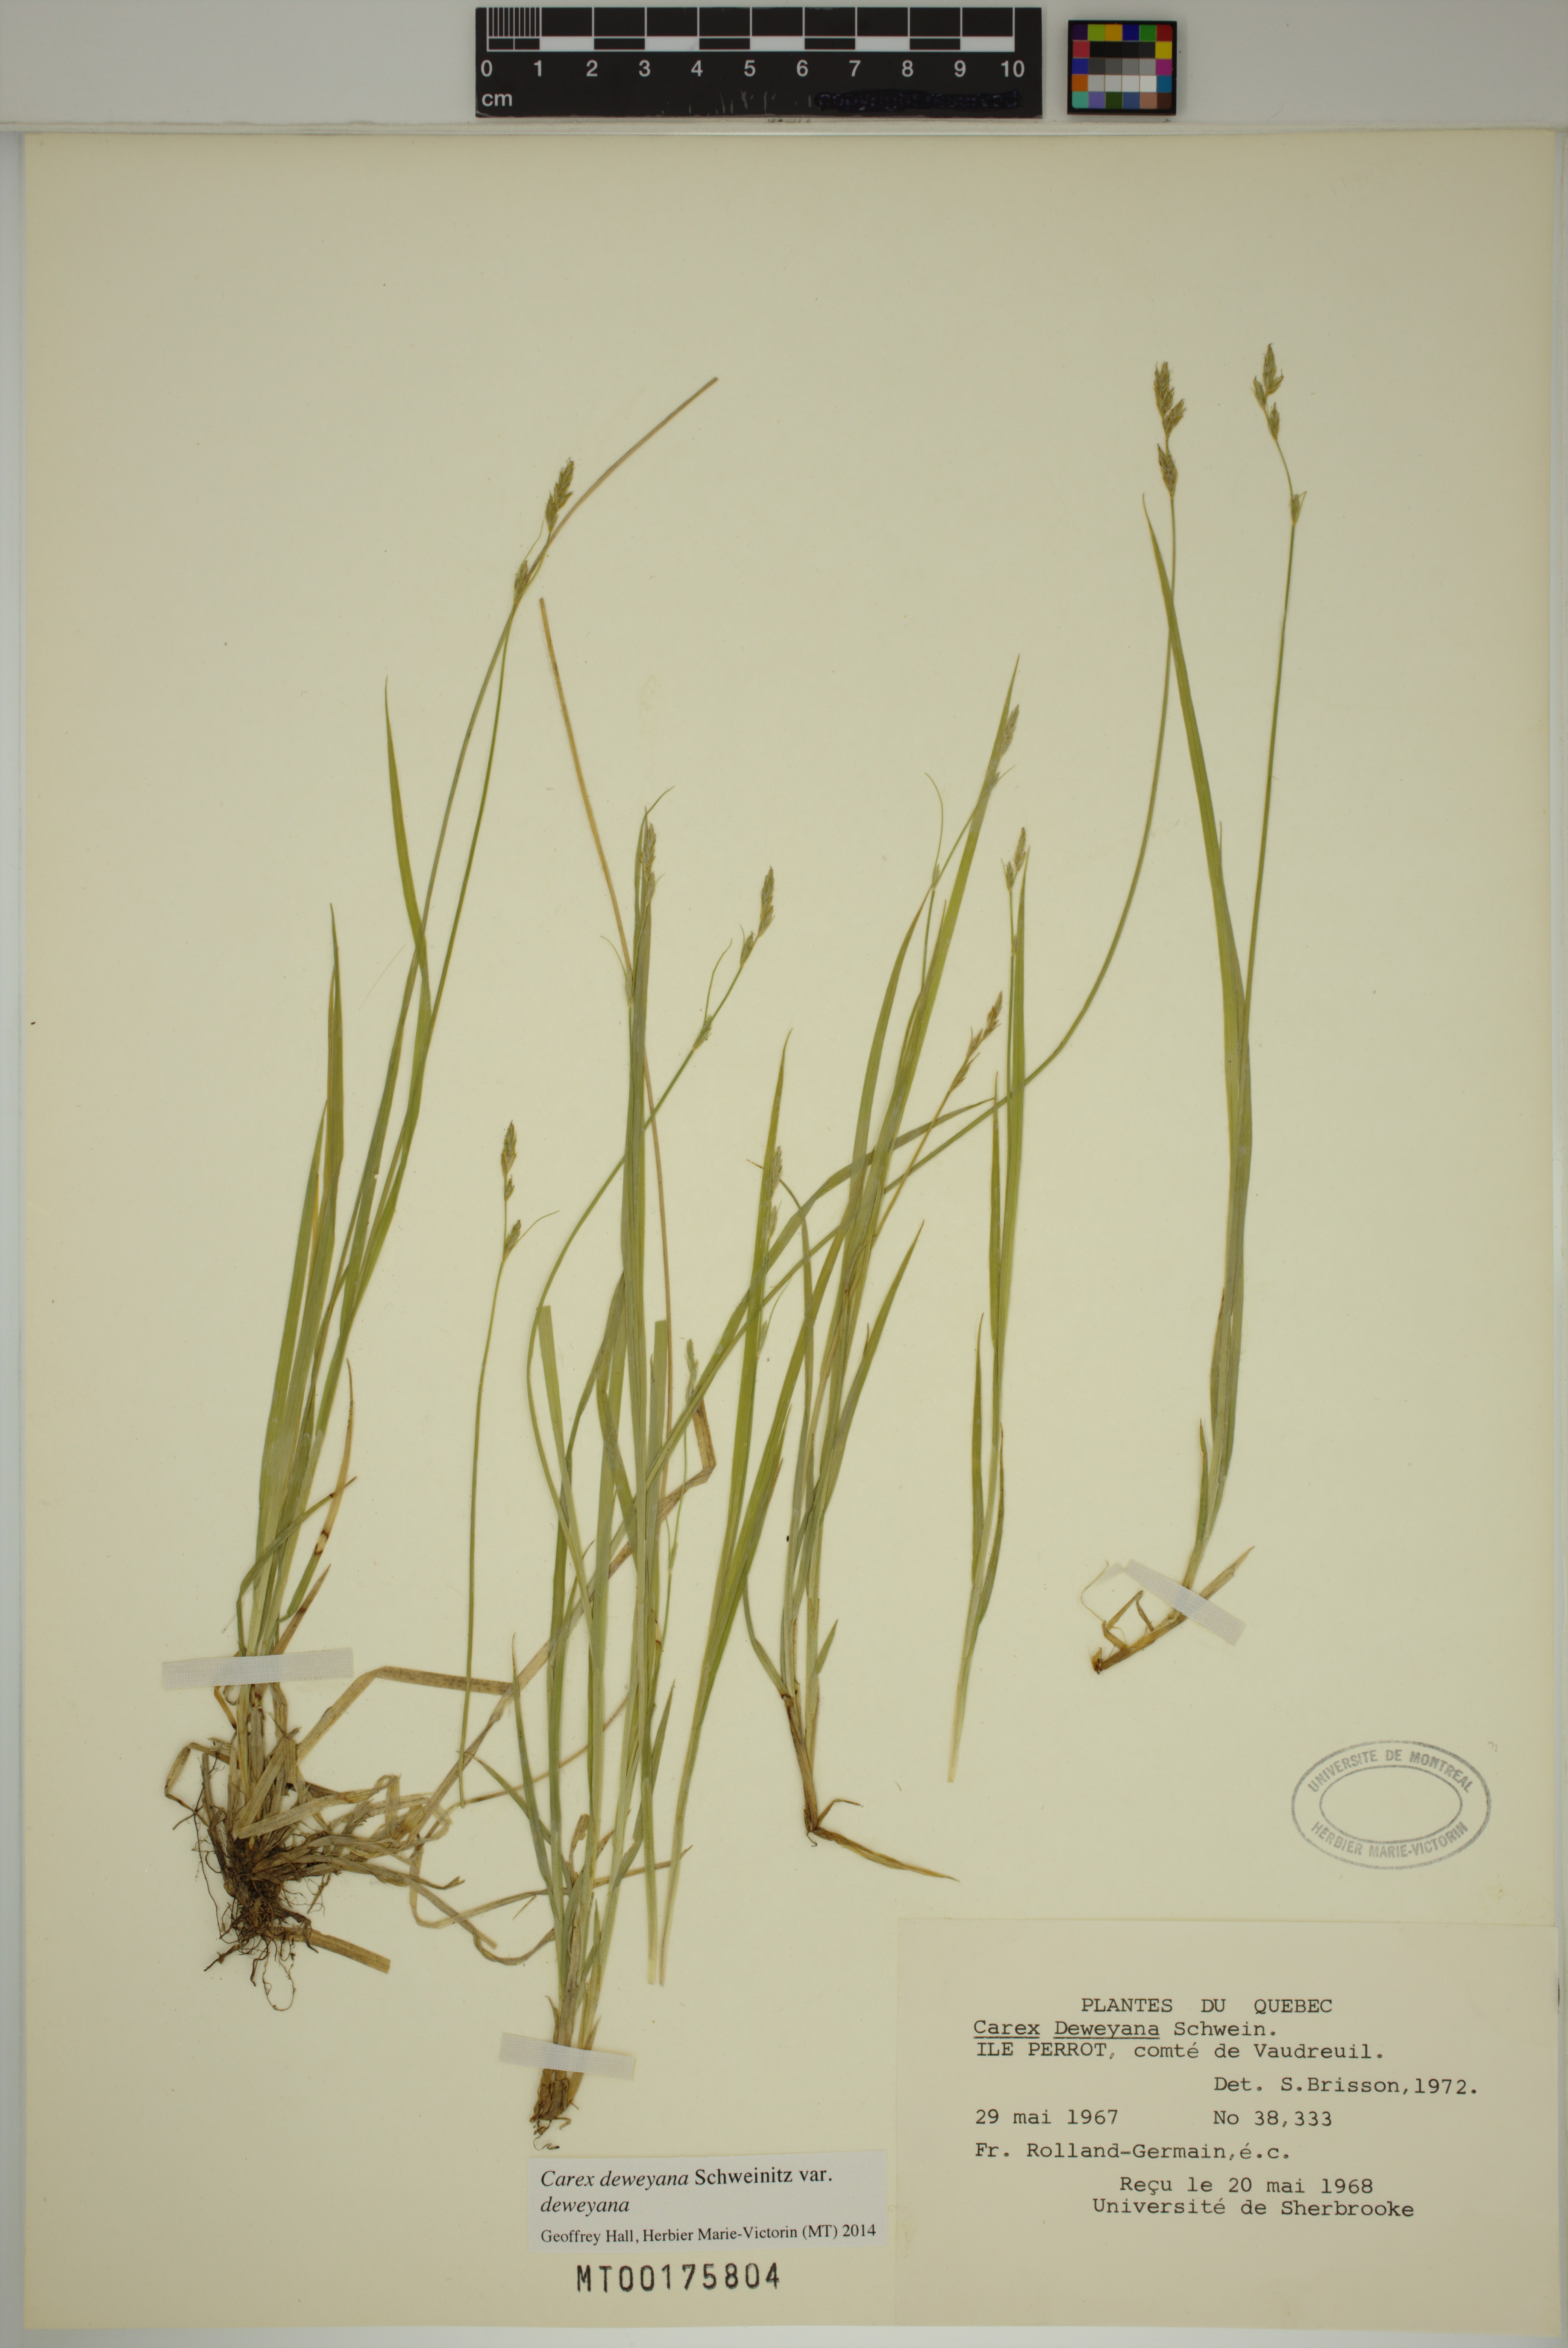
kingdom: Plantae
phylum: Tracheophyta
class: Liliopsida
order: Poales
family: Cyperaceae
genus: Carex
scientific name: Carex deweyana
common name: Dewey's sedge
